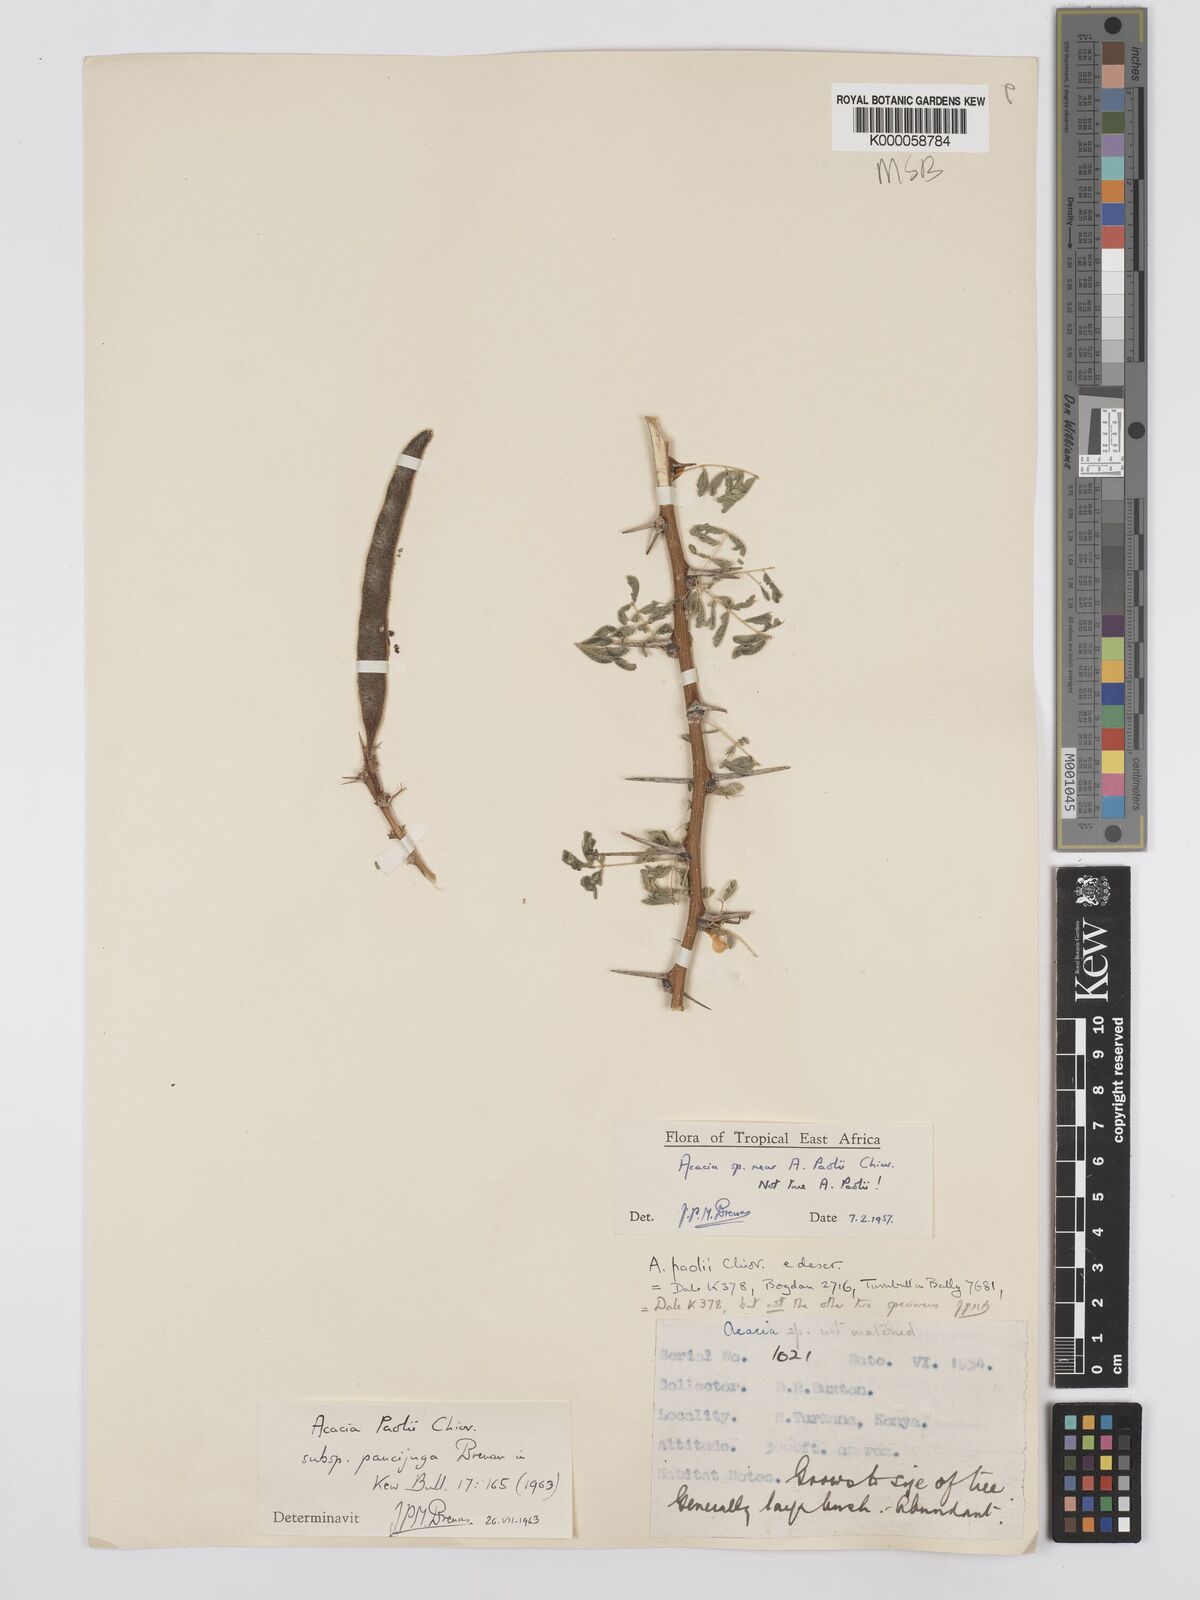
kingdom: Plantae
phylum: Tracheophyta
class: Magnoliopsida
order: Fabales
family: Fabaceae
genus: Vachellia
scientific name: Vachellia paolii
